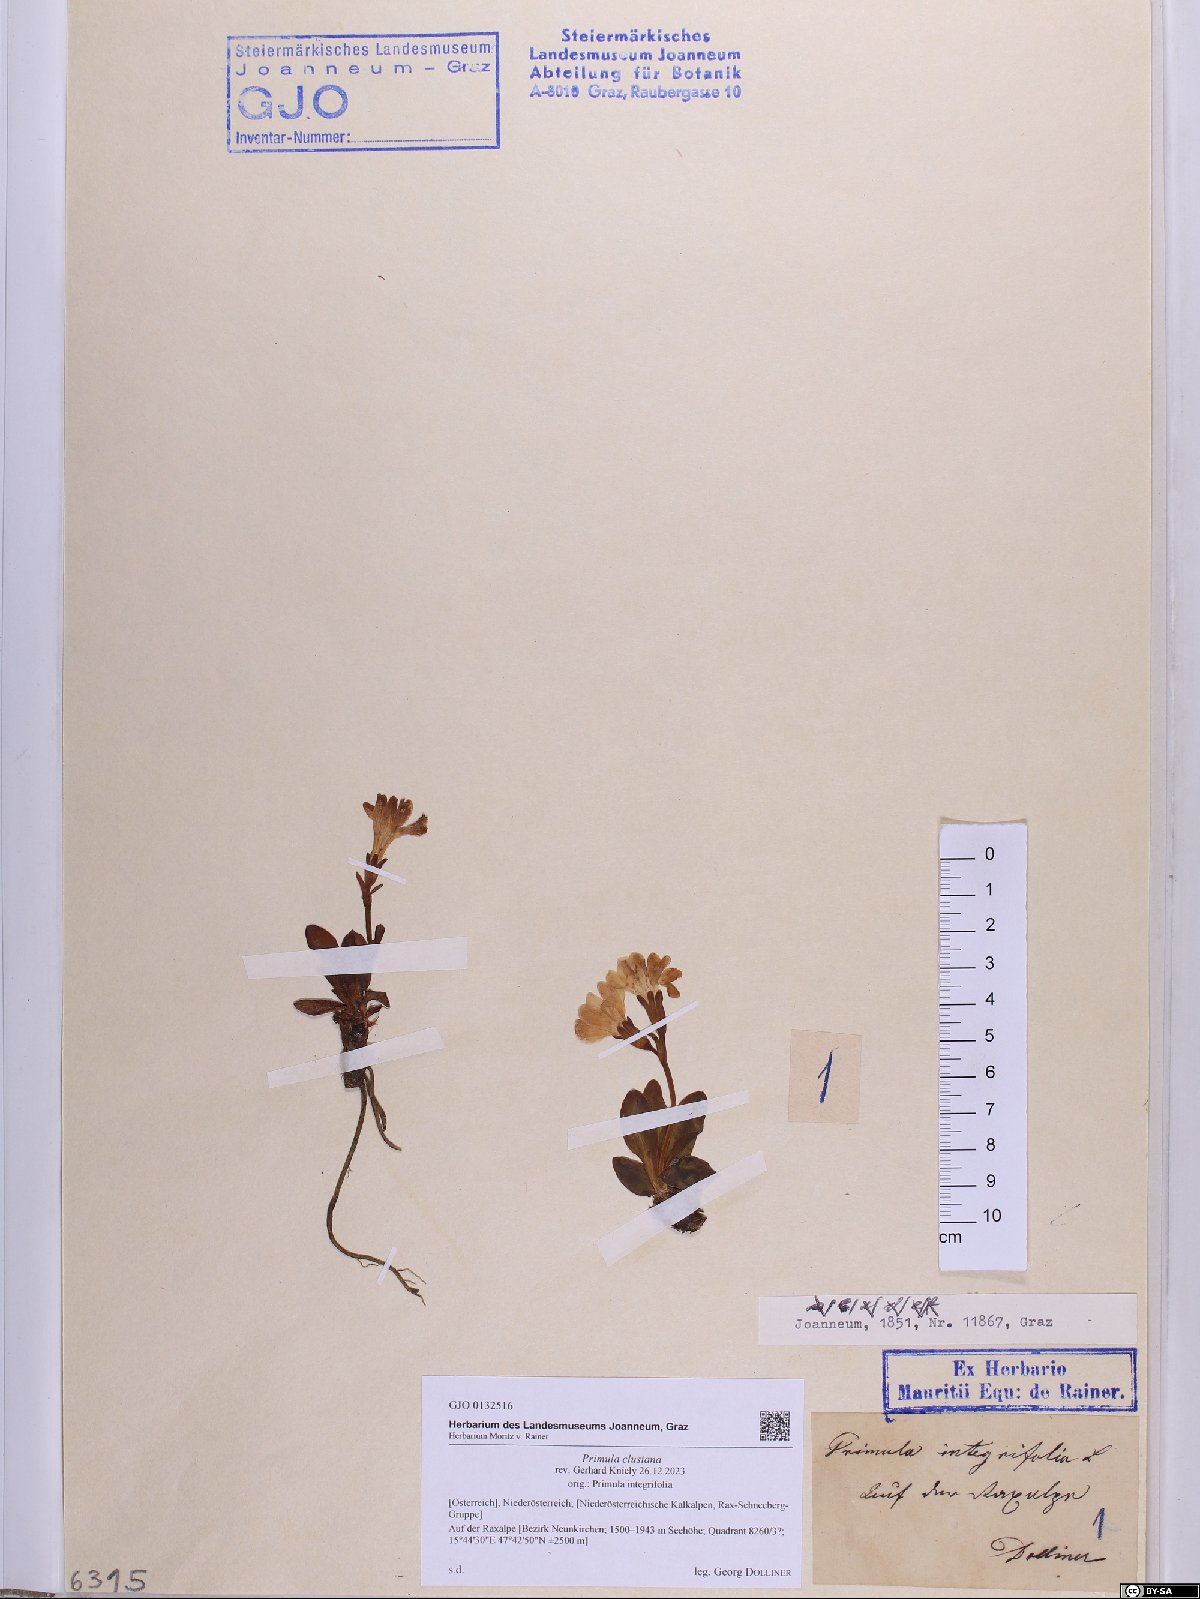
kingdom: Plantae
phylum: Tracheophyta
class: Magnoliopsida
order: Ericales
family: Primulaceae
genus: Primula
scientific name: Primula clusiana
